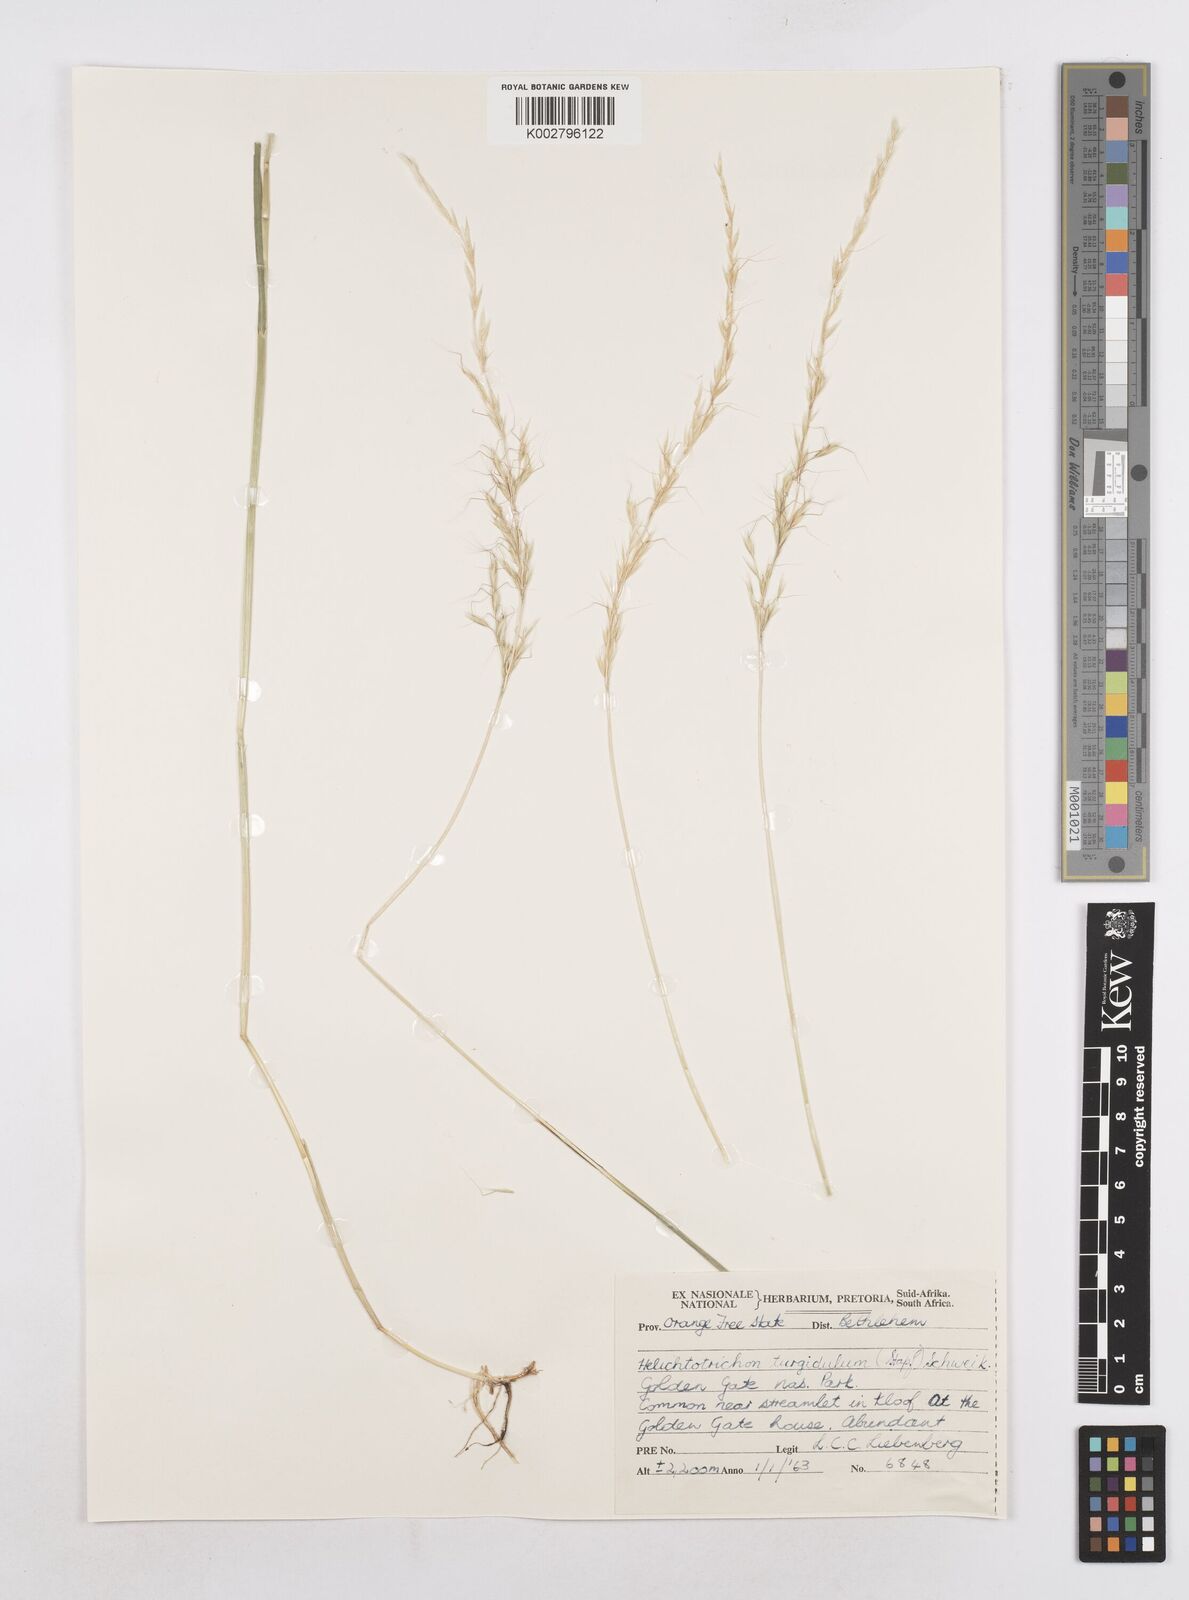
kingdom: Plantae
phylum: Tracheophyta
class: Liliopsida
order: Poales
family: Poaceae
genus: Trisetopsis
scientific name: Trisetopsis imberbis
